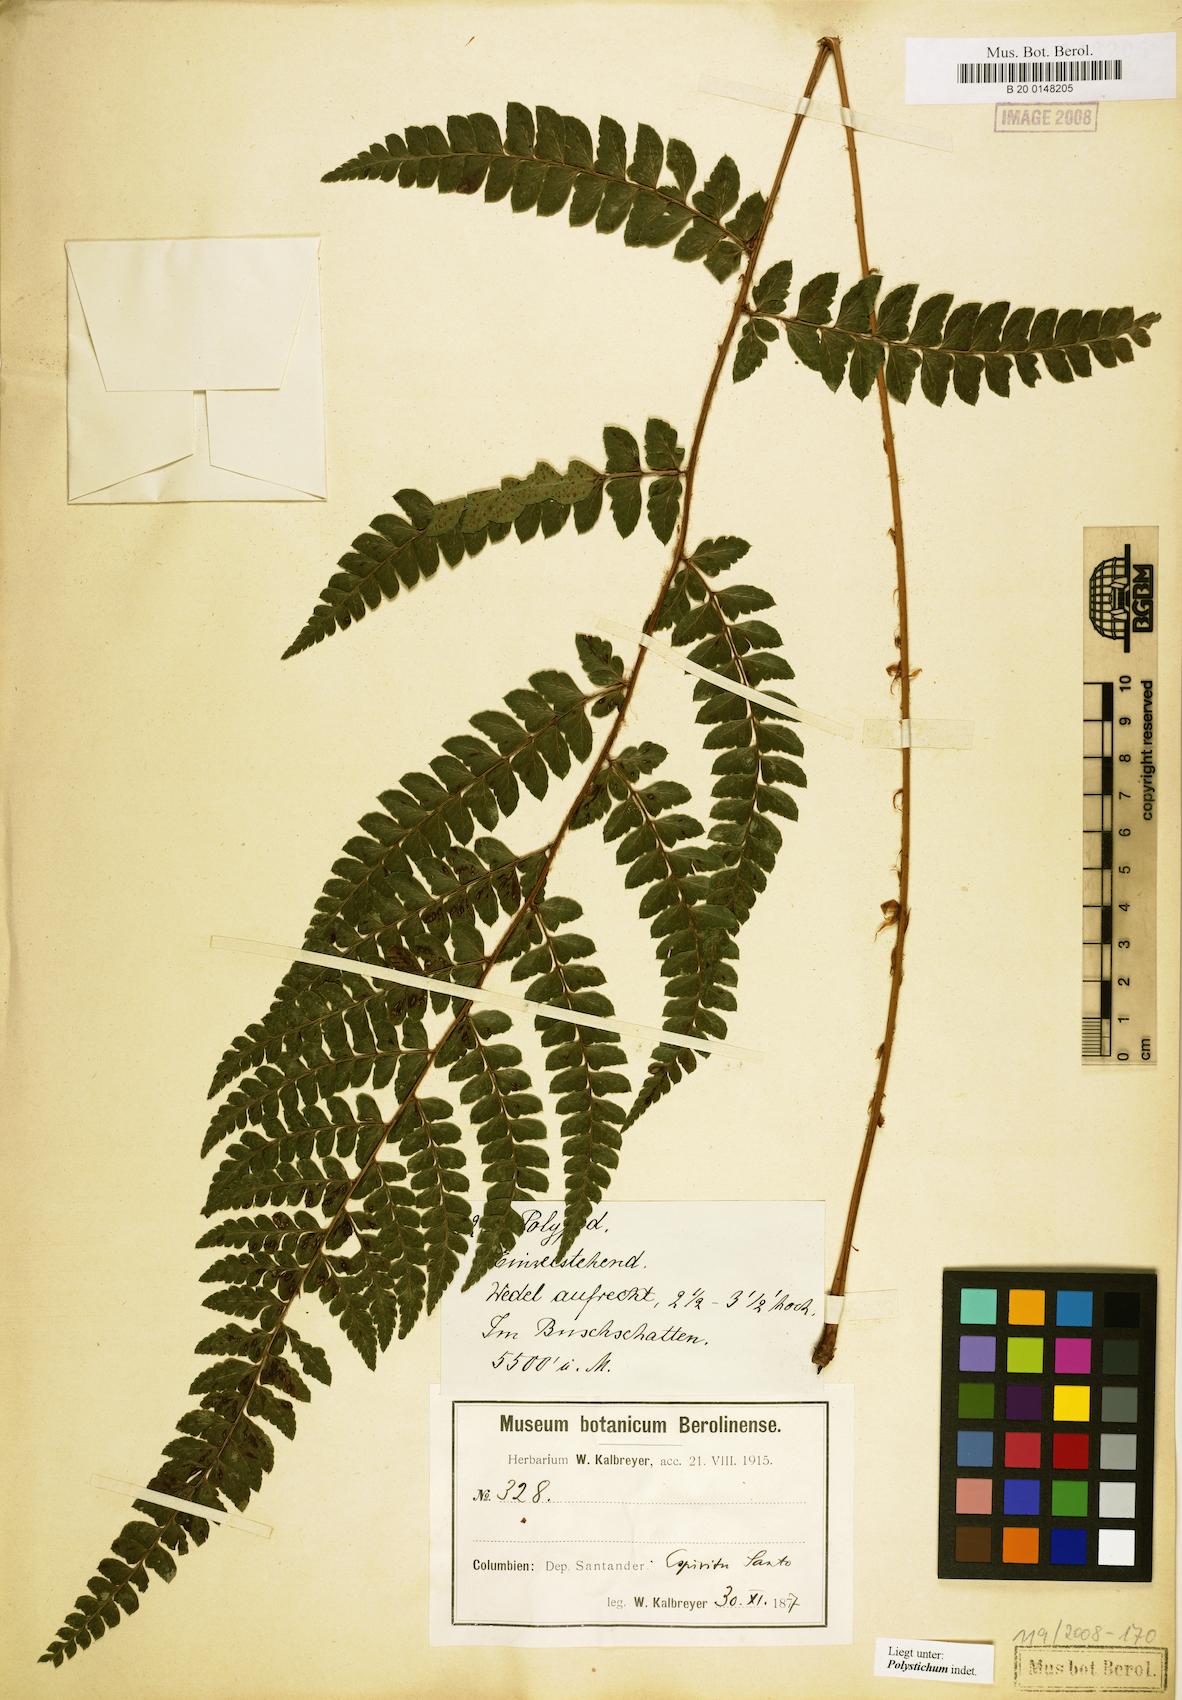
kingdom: Plantae
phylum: Tracheophyta
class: Polypodiopsida
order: Polypodiales
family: Dryopteridaceae
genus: Polystichum
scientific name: Polystichum
